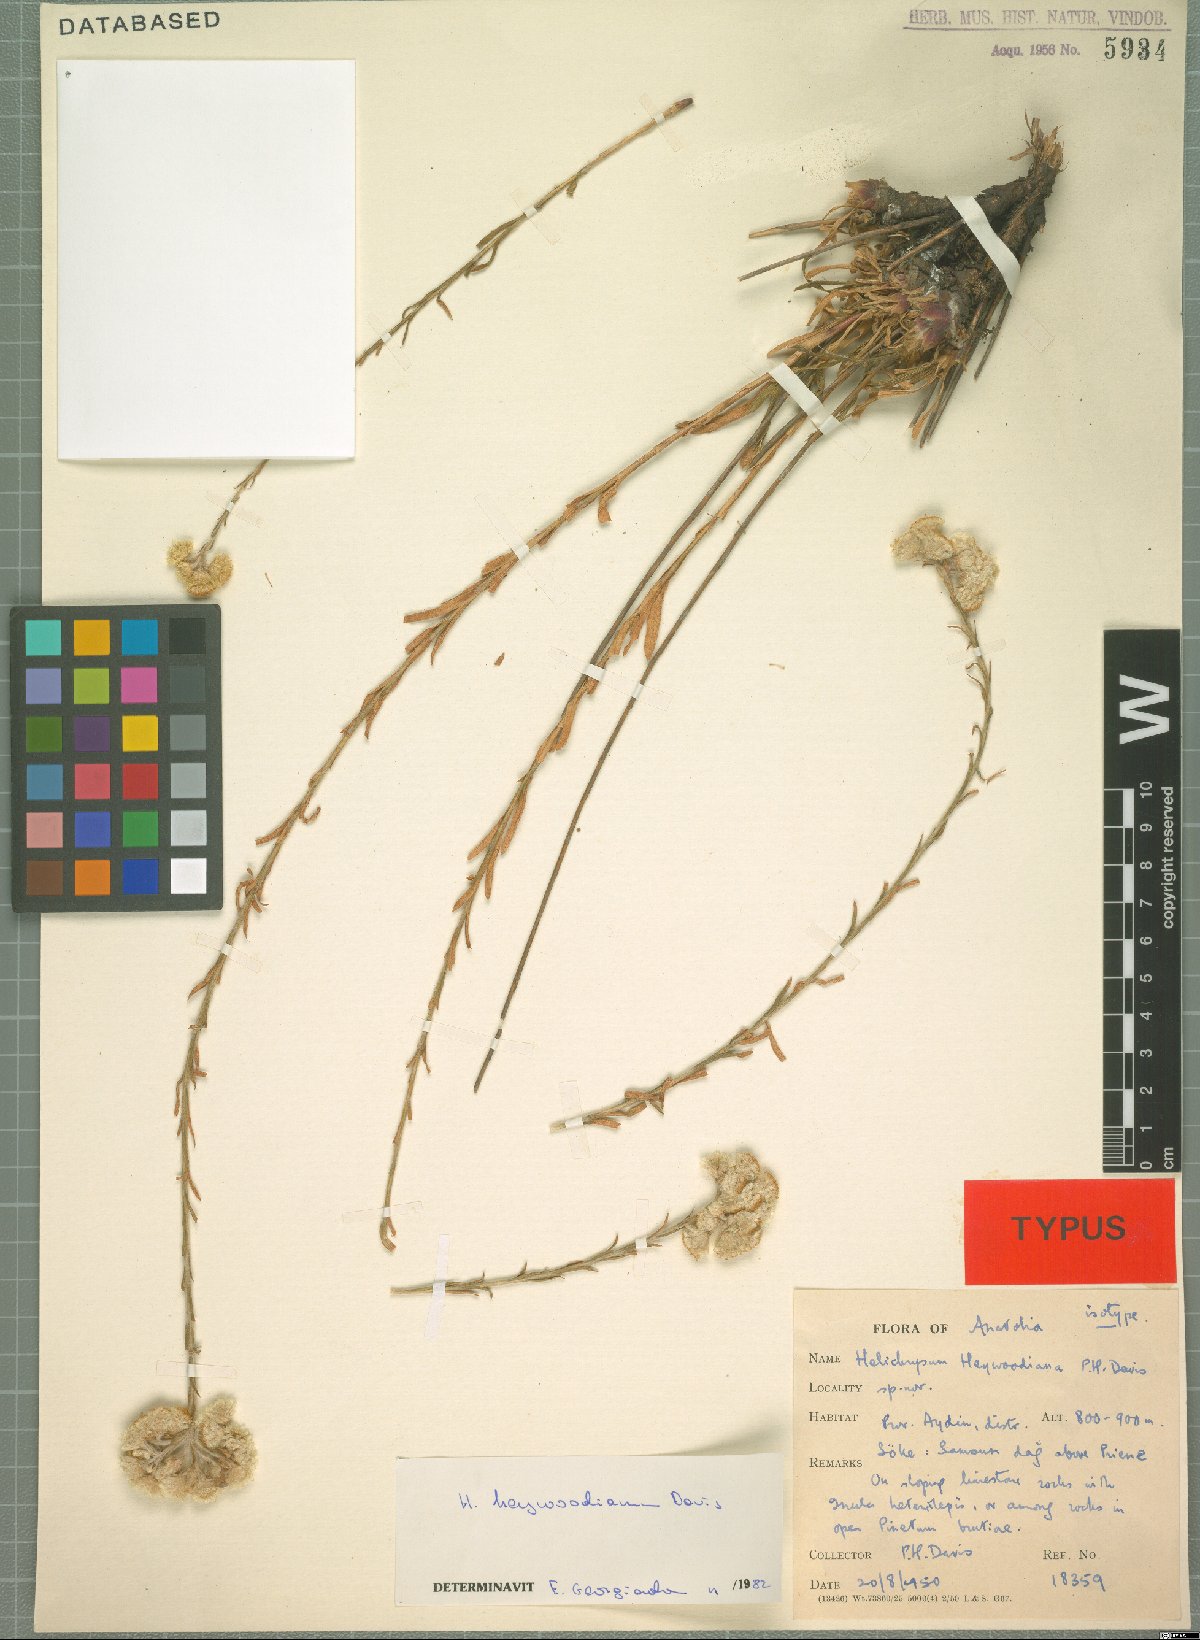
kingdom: Plantae
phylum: Tracheophyta
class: Magnoliopsida
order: Asterales
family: Asteraceae
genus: Helichrysum
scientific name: Helichrysum heywoodianum
